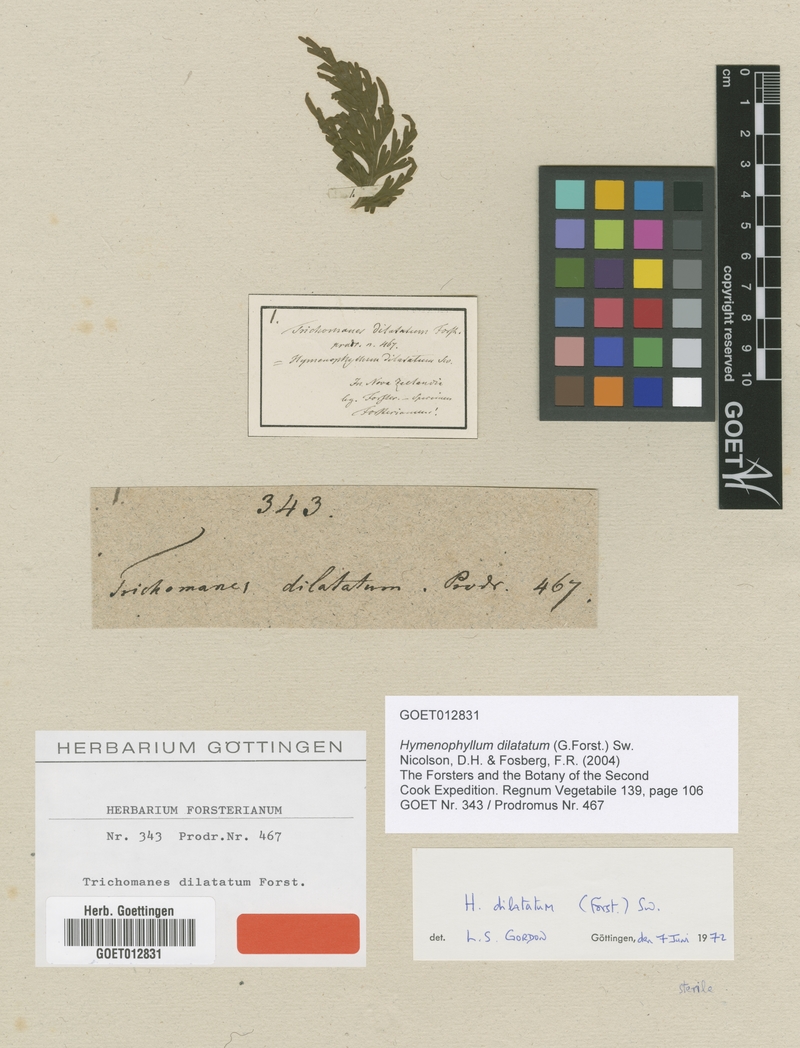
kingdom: Plantae
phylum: Tracheophyta
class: Polypodiopsida
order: Hymenophyllales
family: Hymenophyllaceae
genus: Hymenophyllum
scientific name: Hymenophyllum dilatatum
